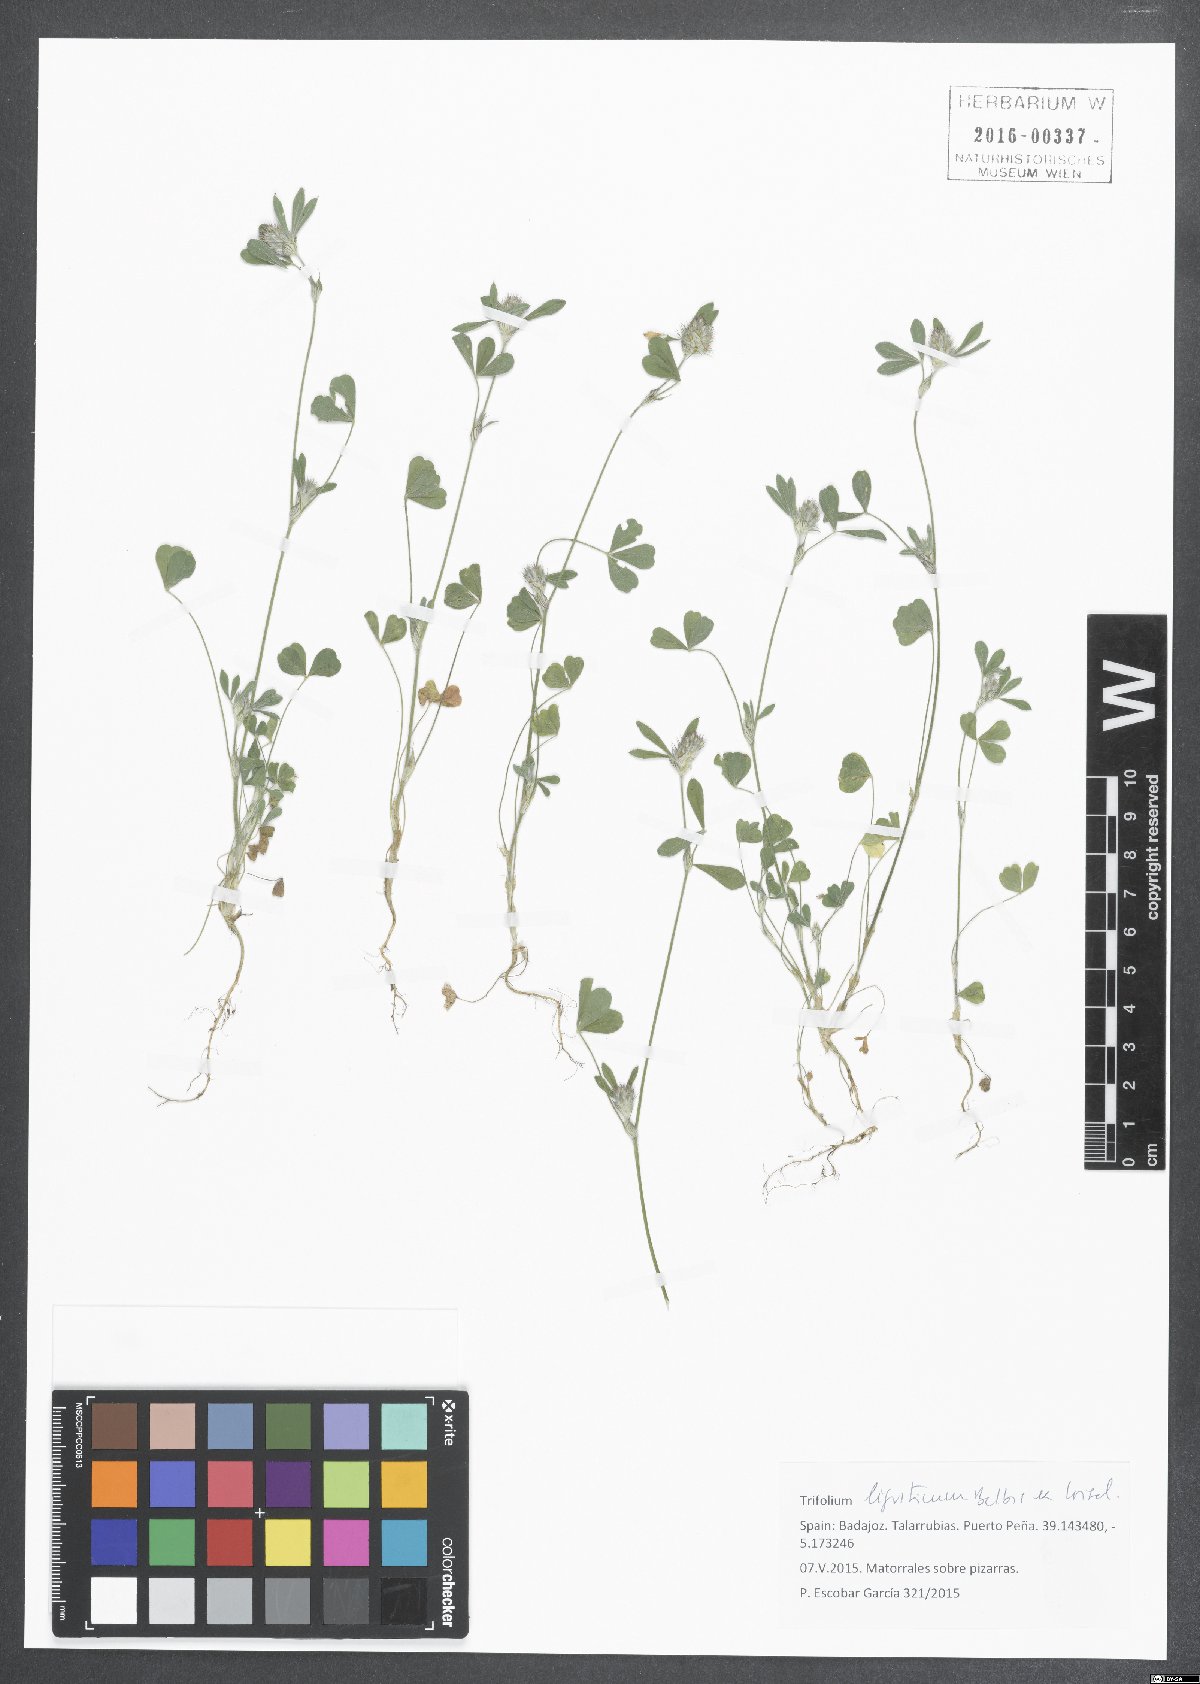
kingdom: Plantae
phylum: Tracheophyta
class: Magnoliopsida
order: Fabales
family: Fabaceae
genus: Trifolium
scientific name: Trifolium
